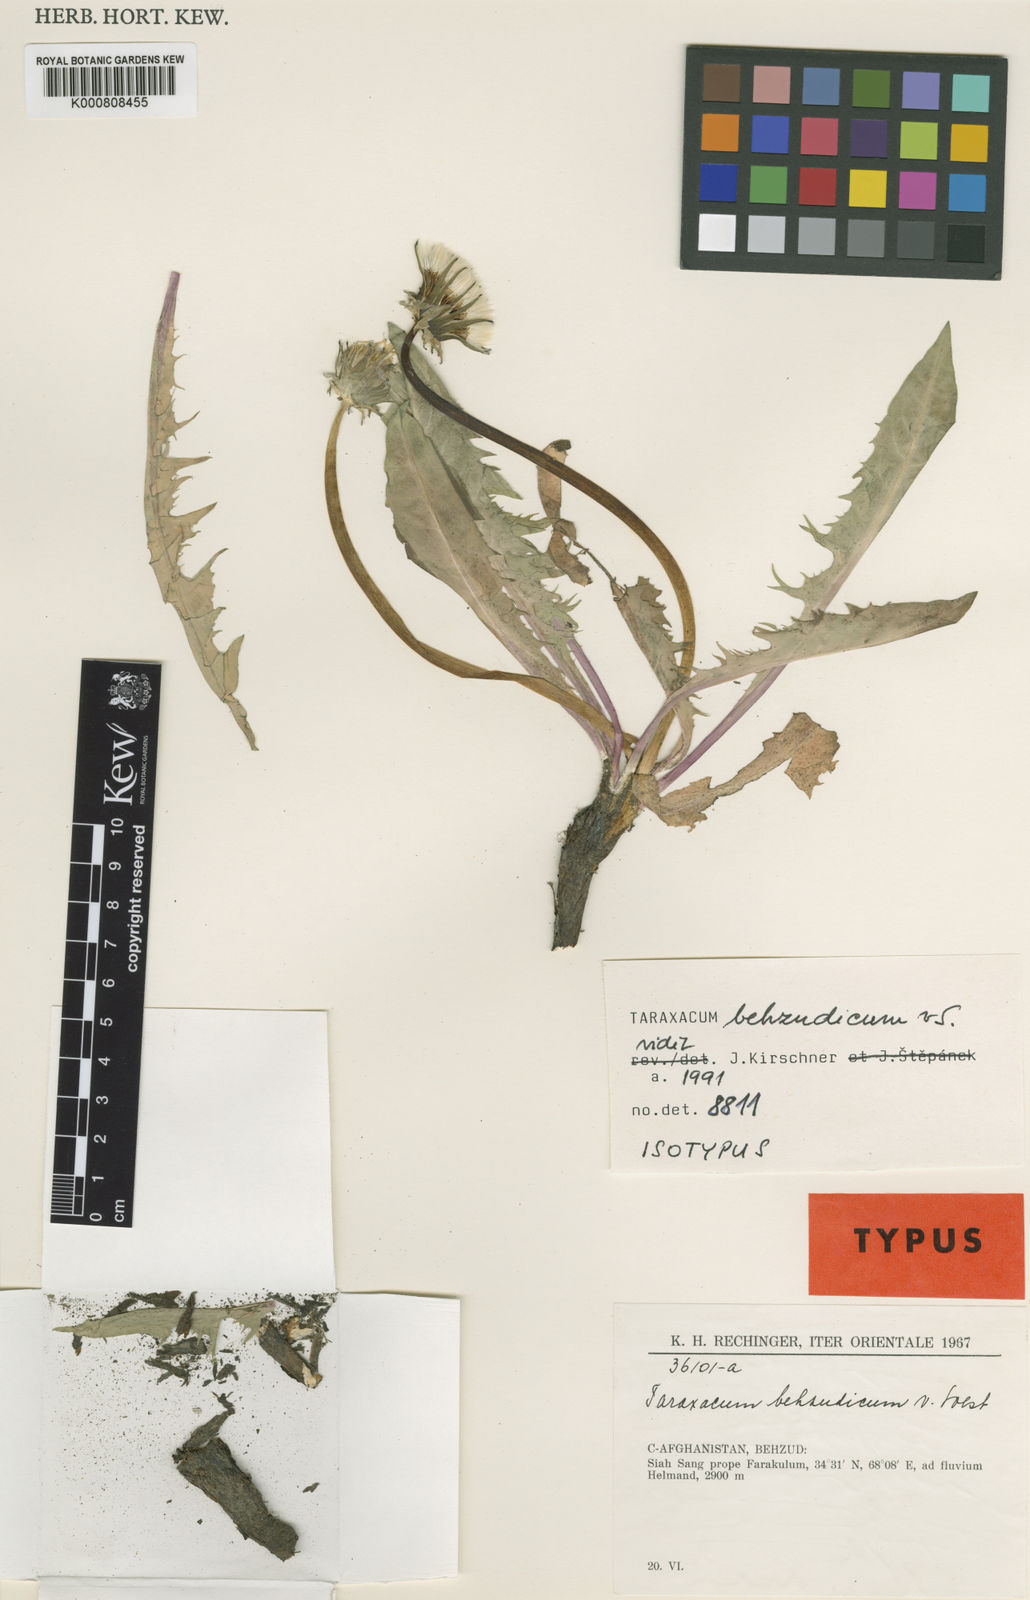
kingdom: Plantae
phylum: Tracheophyta
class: Magnoliopsida
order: Asterales
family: Asteraceae
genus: Taraxacum
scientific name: Taraxacum behzudicum
